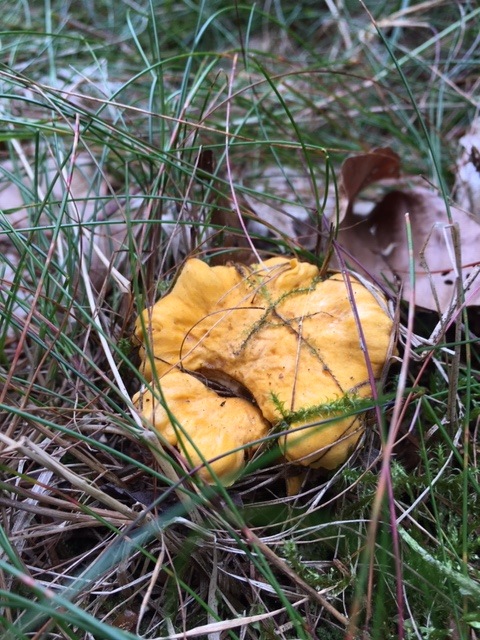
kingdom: Fungi
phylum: Basidiomycota
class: Agaricomycetes
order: Cantharellales
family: Hydnaceae
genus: Cantharellus
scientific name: Cantharellus cibarius
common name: almindelig kantarel
